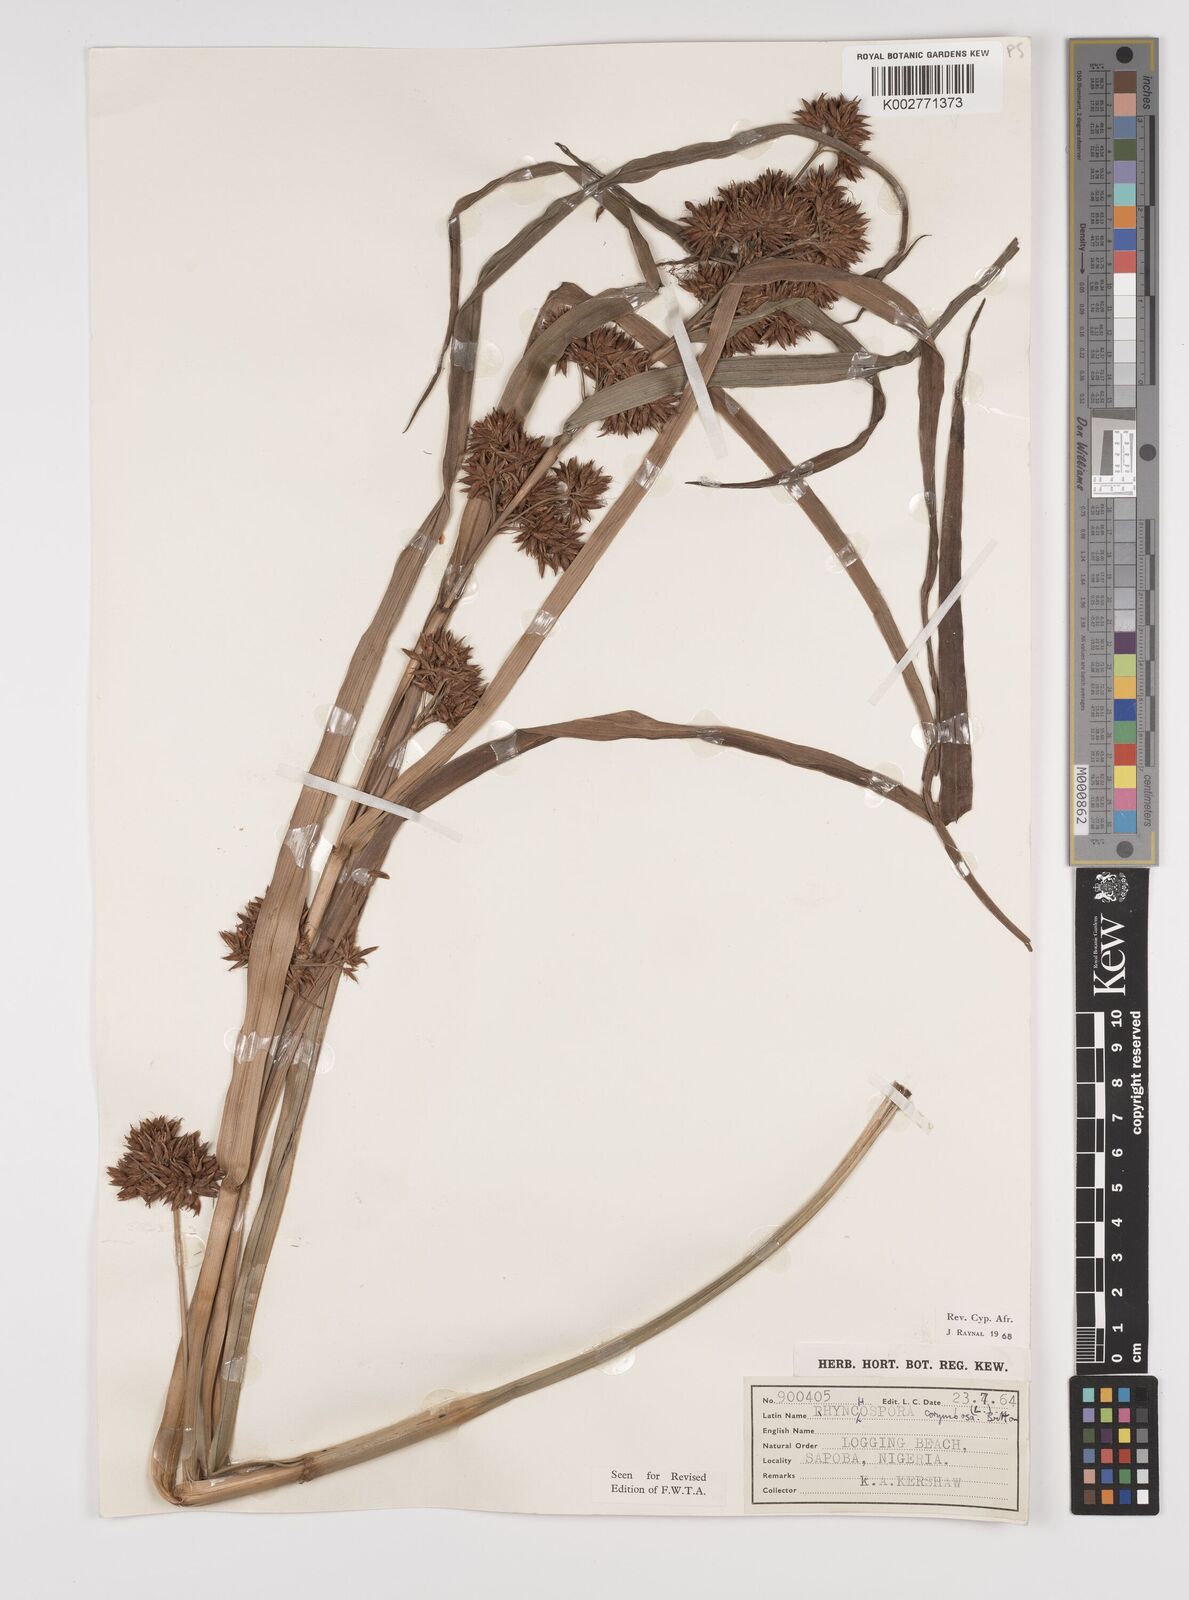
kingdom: Plantae
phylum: Tracheophyta
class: Liliopsida
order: Poales
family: Cyperaceae
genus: Rhynchospora
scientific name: Rhynchospora corymbosa
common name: Golden beak sedge
